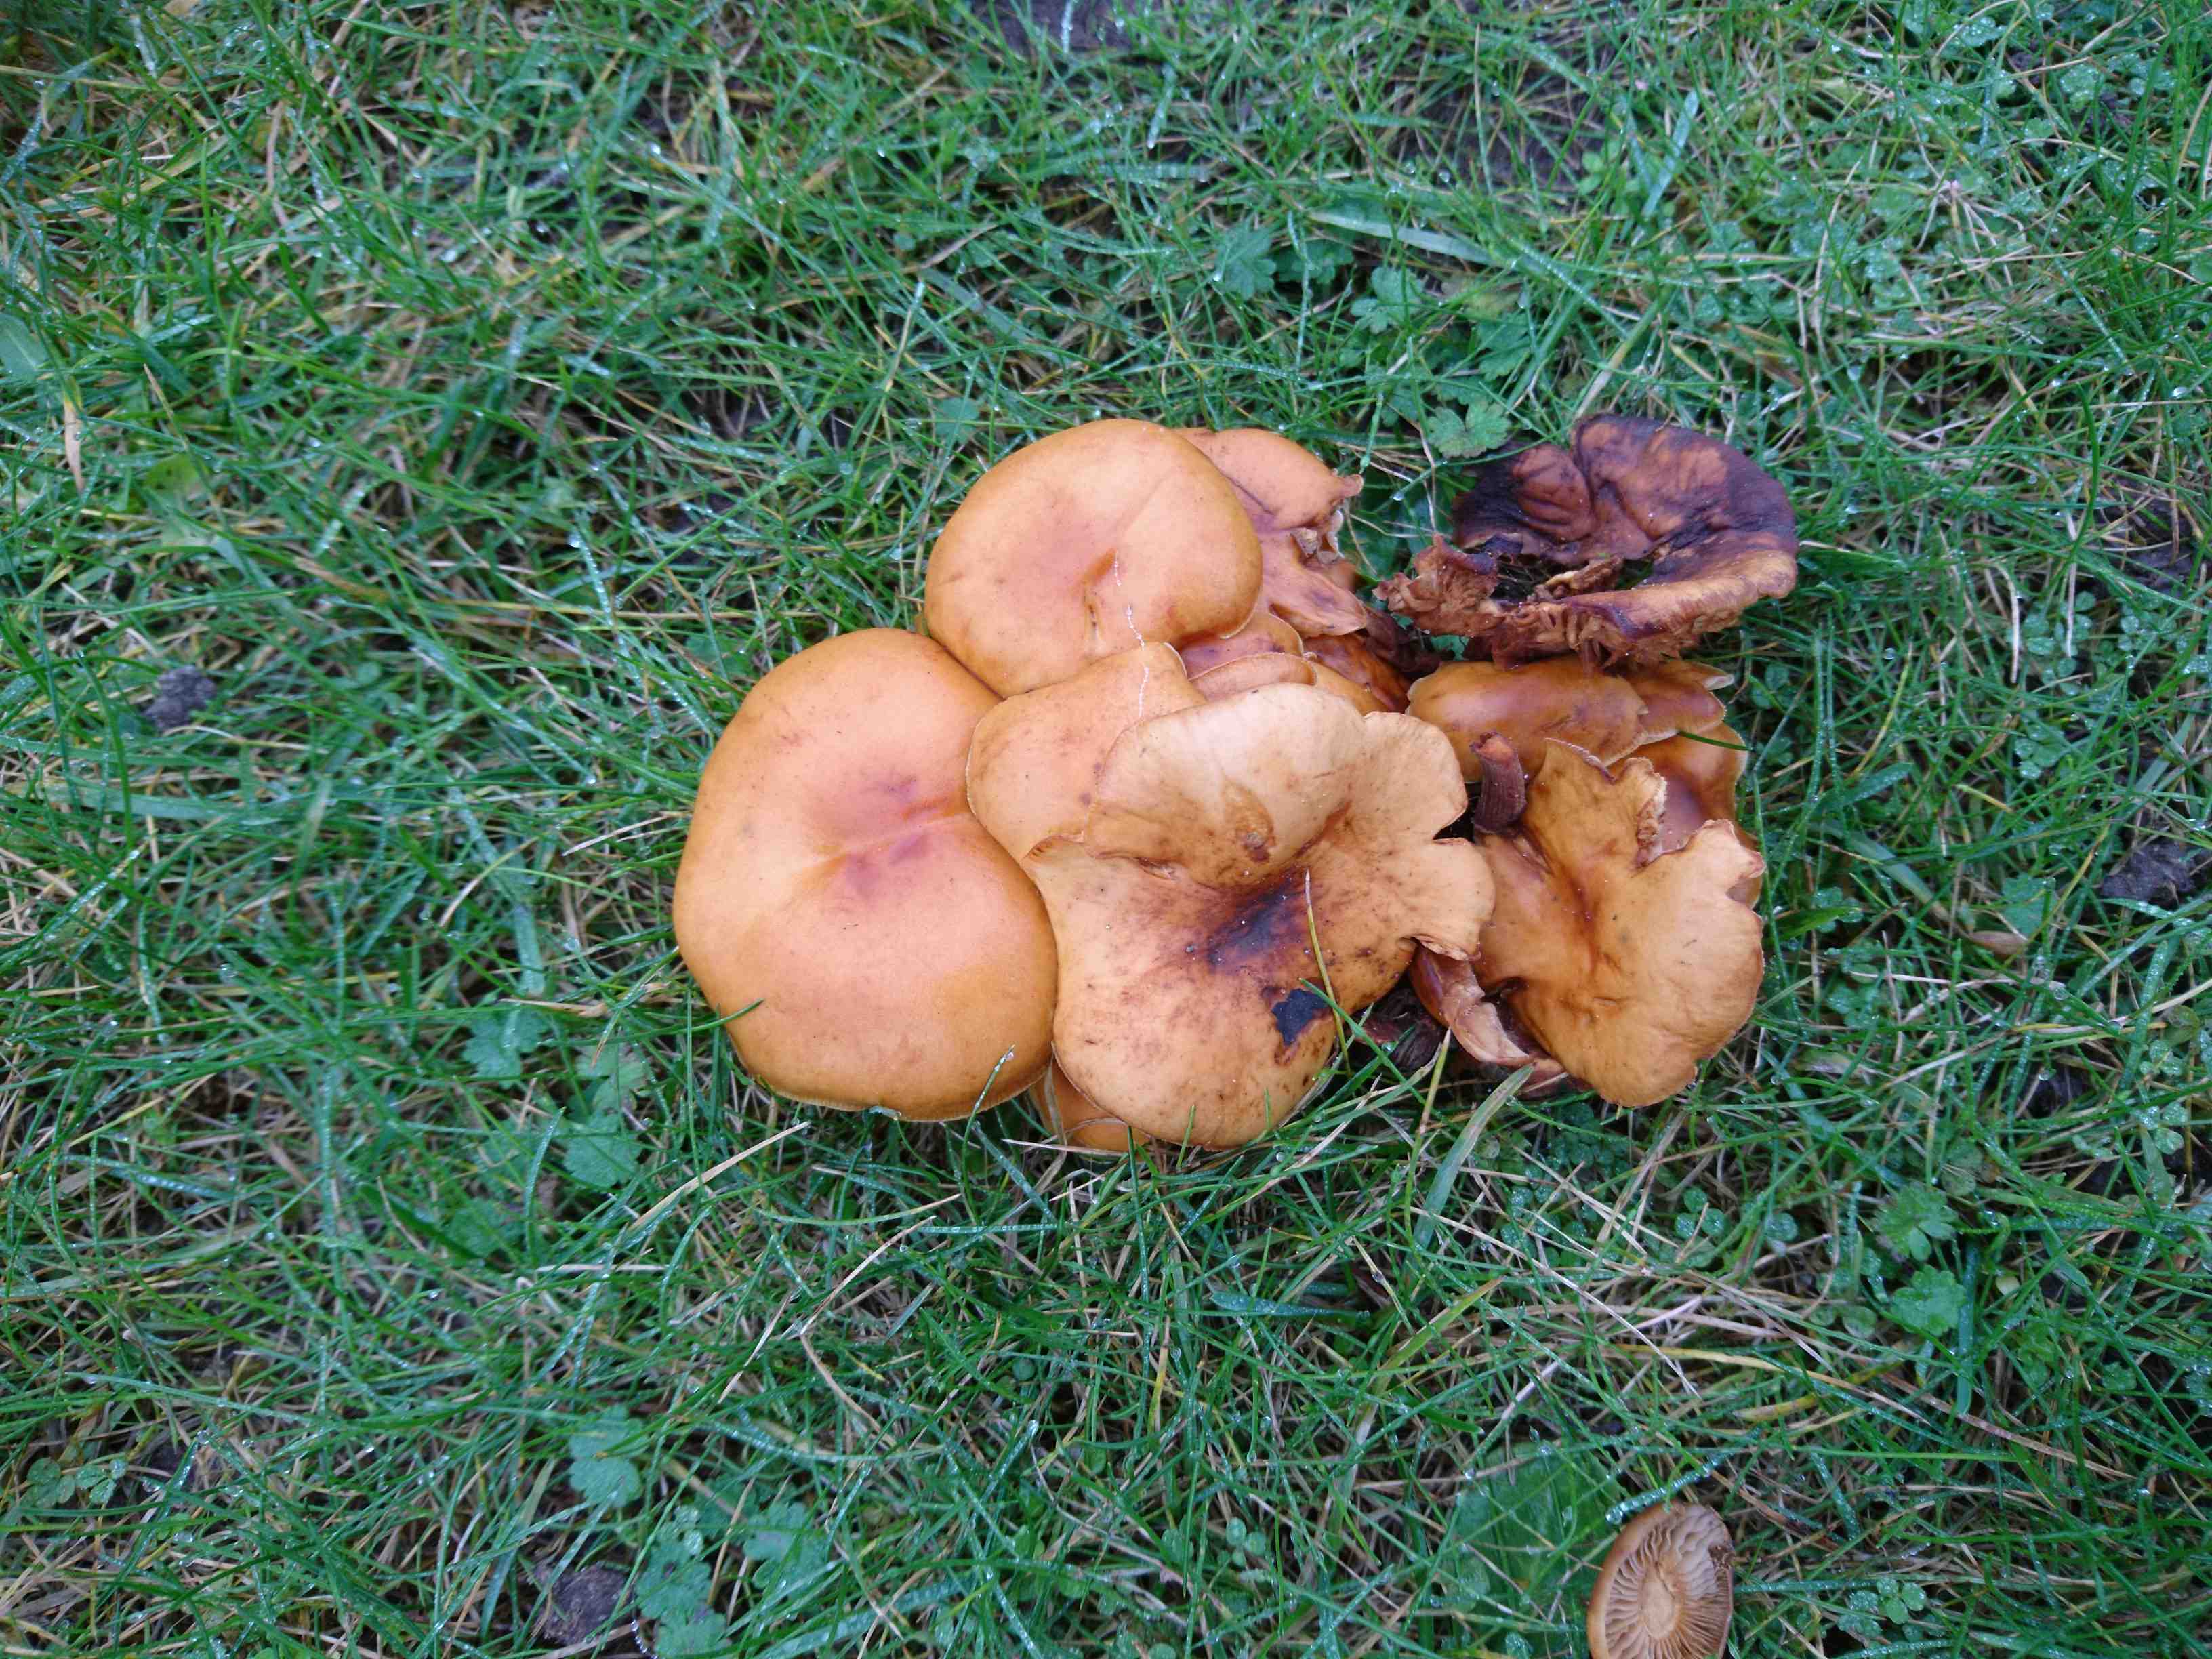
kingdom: Fungi
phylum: Basidiomycota
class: Agaricomycetes
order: Agaricales
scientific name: Agaricales
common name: champignonordenen
